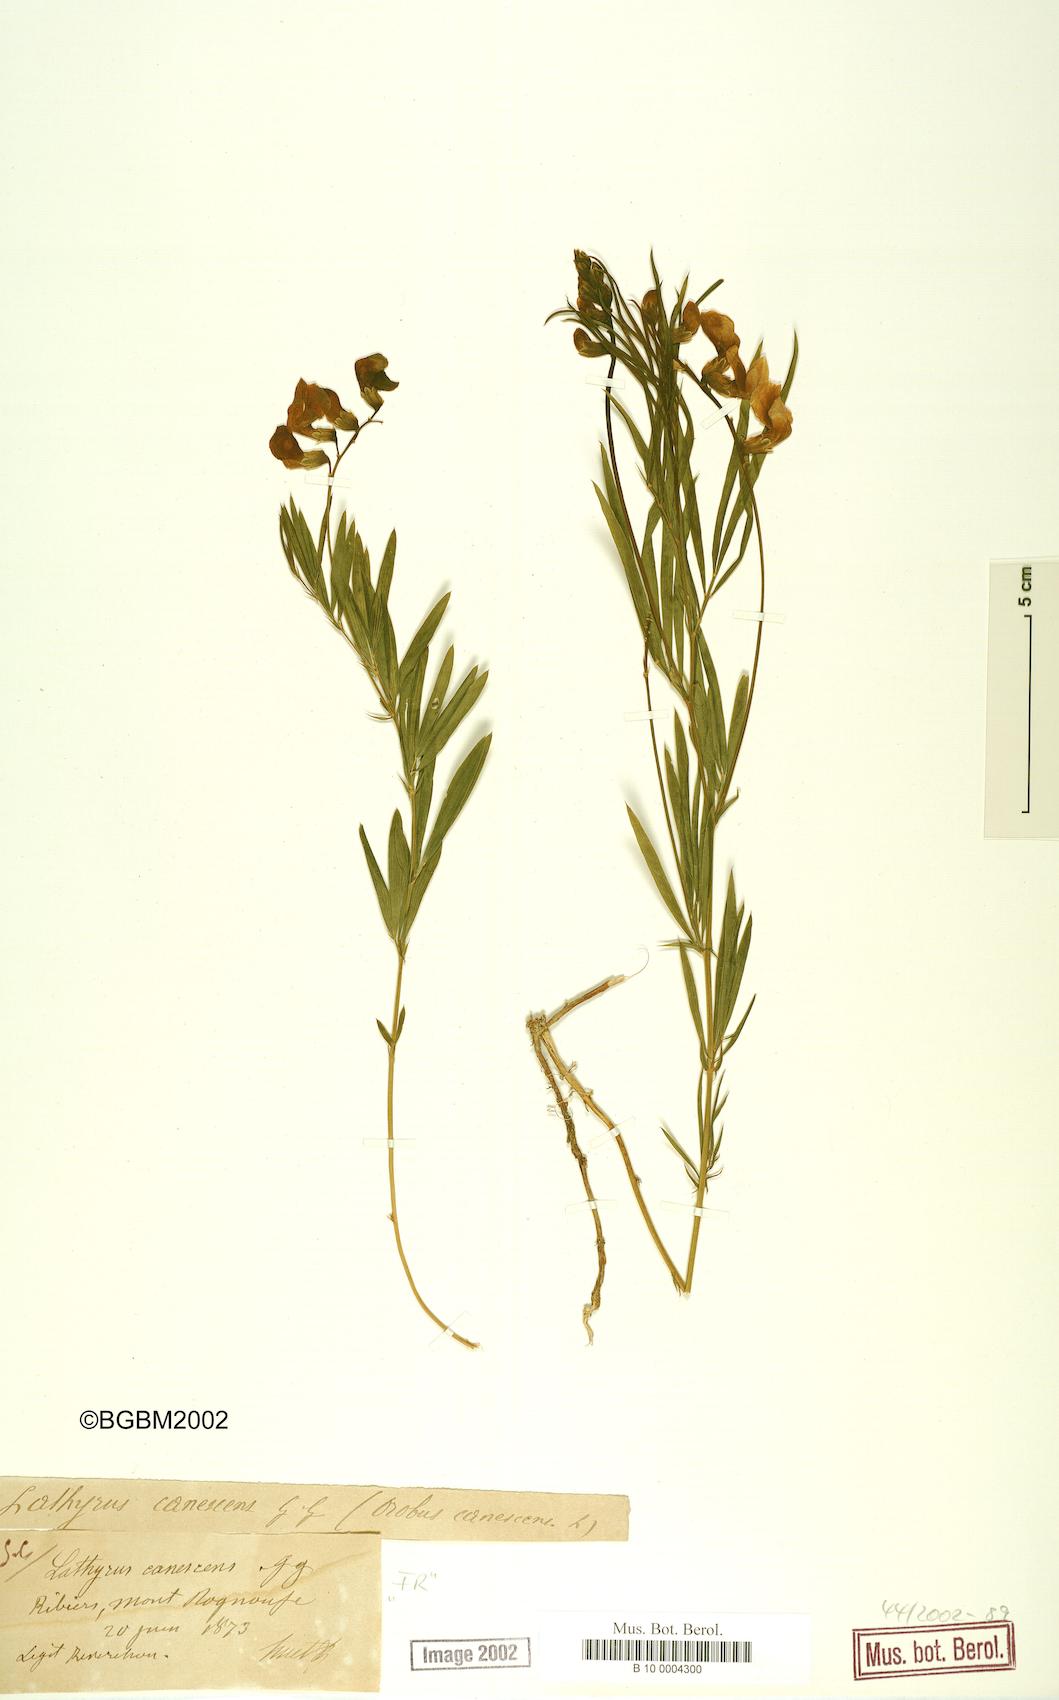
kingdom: Plantae
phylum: Tracheophyta
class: Magnoliopsida
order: Fabales
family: Fabaceae
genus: Lathyrus
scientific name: Lathyrus filiformis
